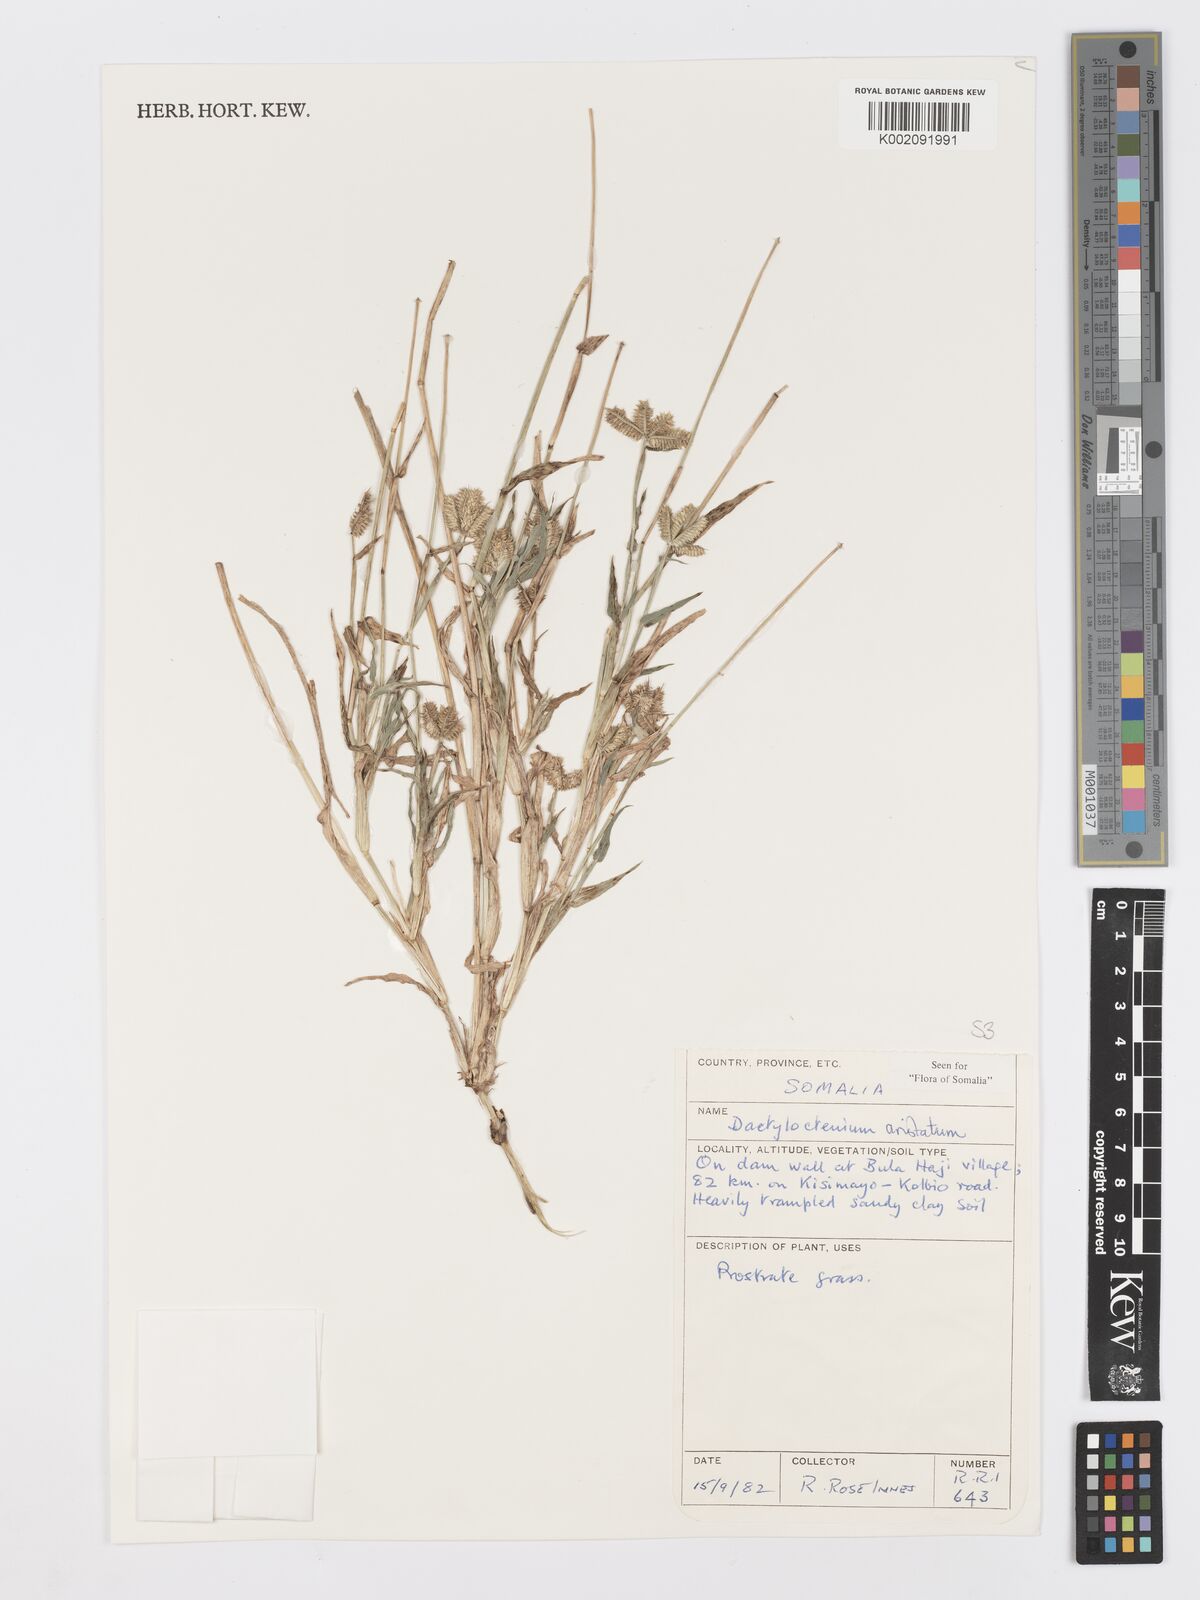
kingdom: Plantae
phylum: Tracheophyta
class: Liliopsida
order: Poales
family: Poaceae
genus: Dactyloctenium
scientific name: Dactyloctenium aristatum
